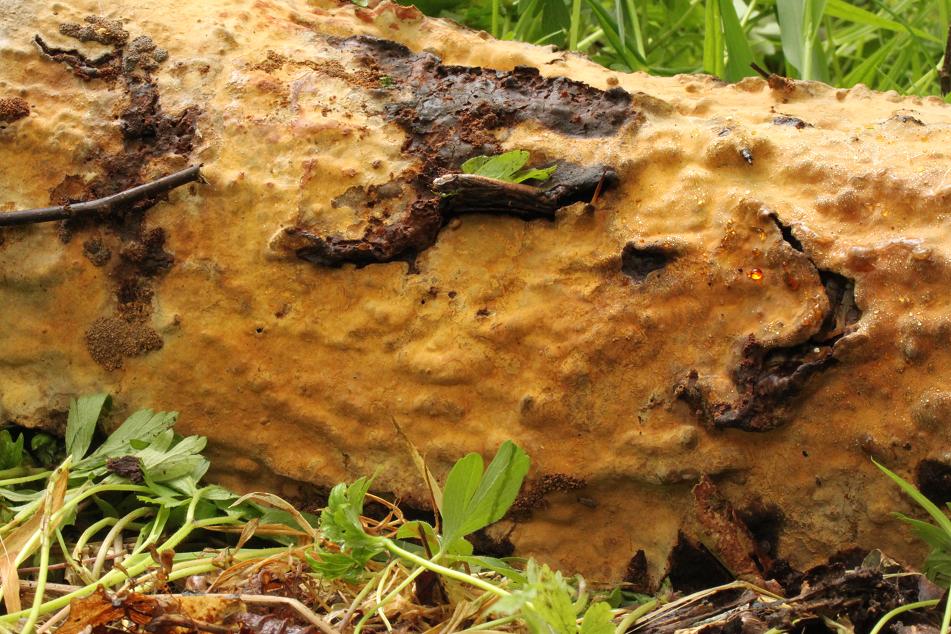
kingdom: Fungi
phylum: Basidiomycota
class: Agaricomycetes
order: Russulales
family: Stereaceae
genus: Stereum
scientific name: Stereum rugosum
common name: rynket lædersvamp
